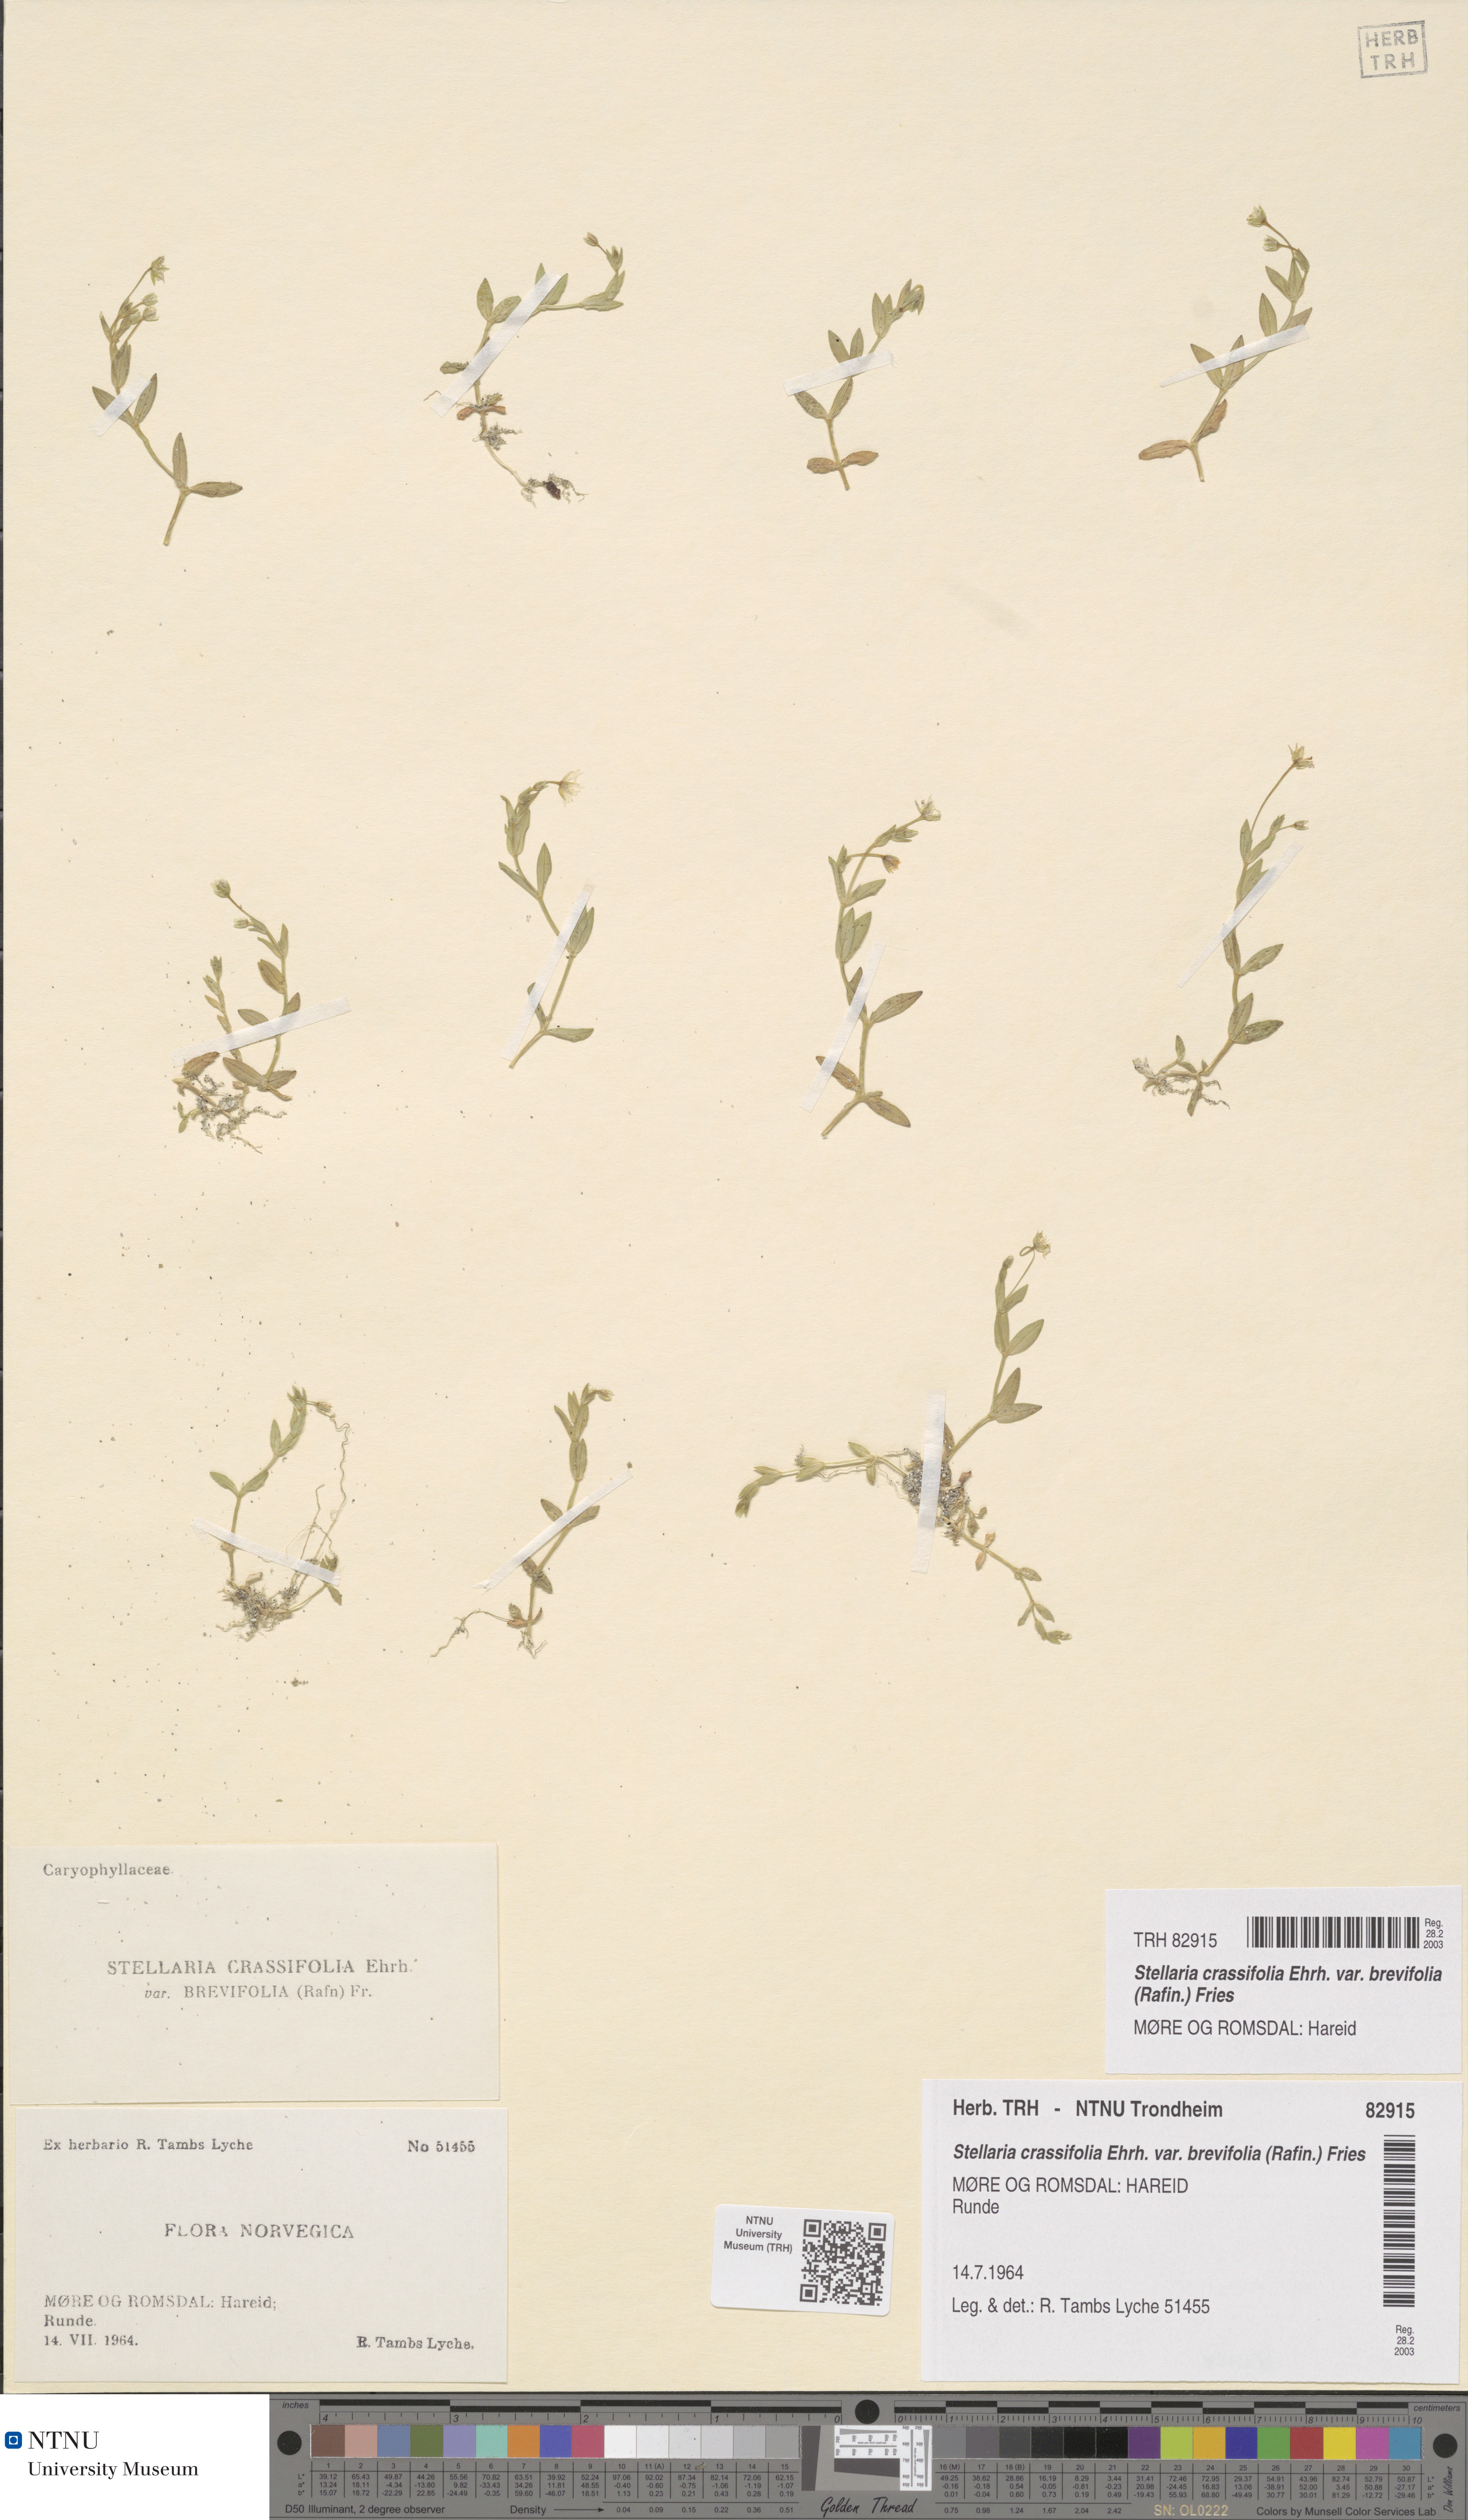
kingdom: Plantae
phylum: Tracheophyta
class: Magnoliopsida
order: Caryophyllales
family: Caryophyllaceae
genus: Stellaria
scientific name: Stellaria crassifolia
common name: Fleshy starwort
